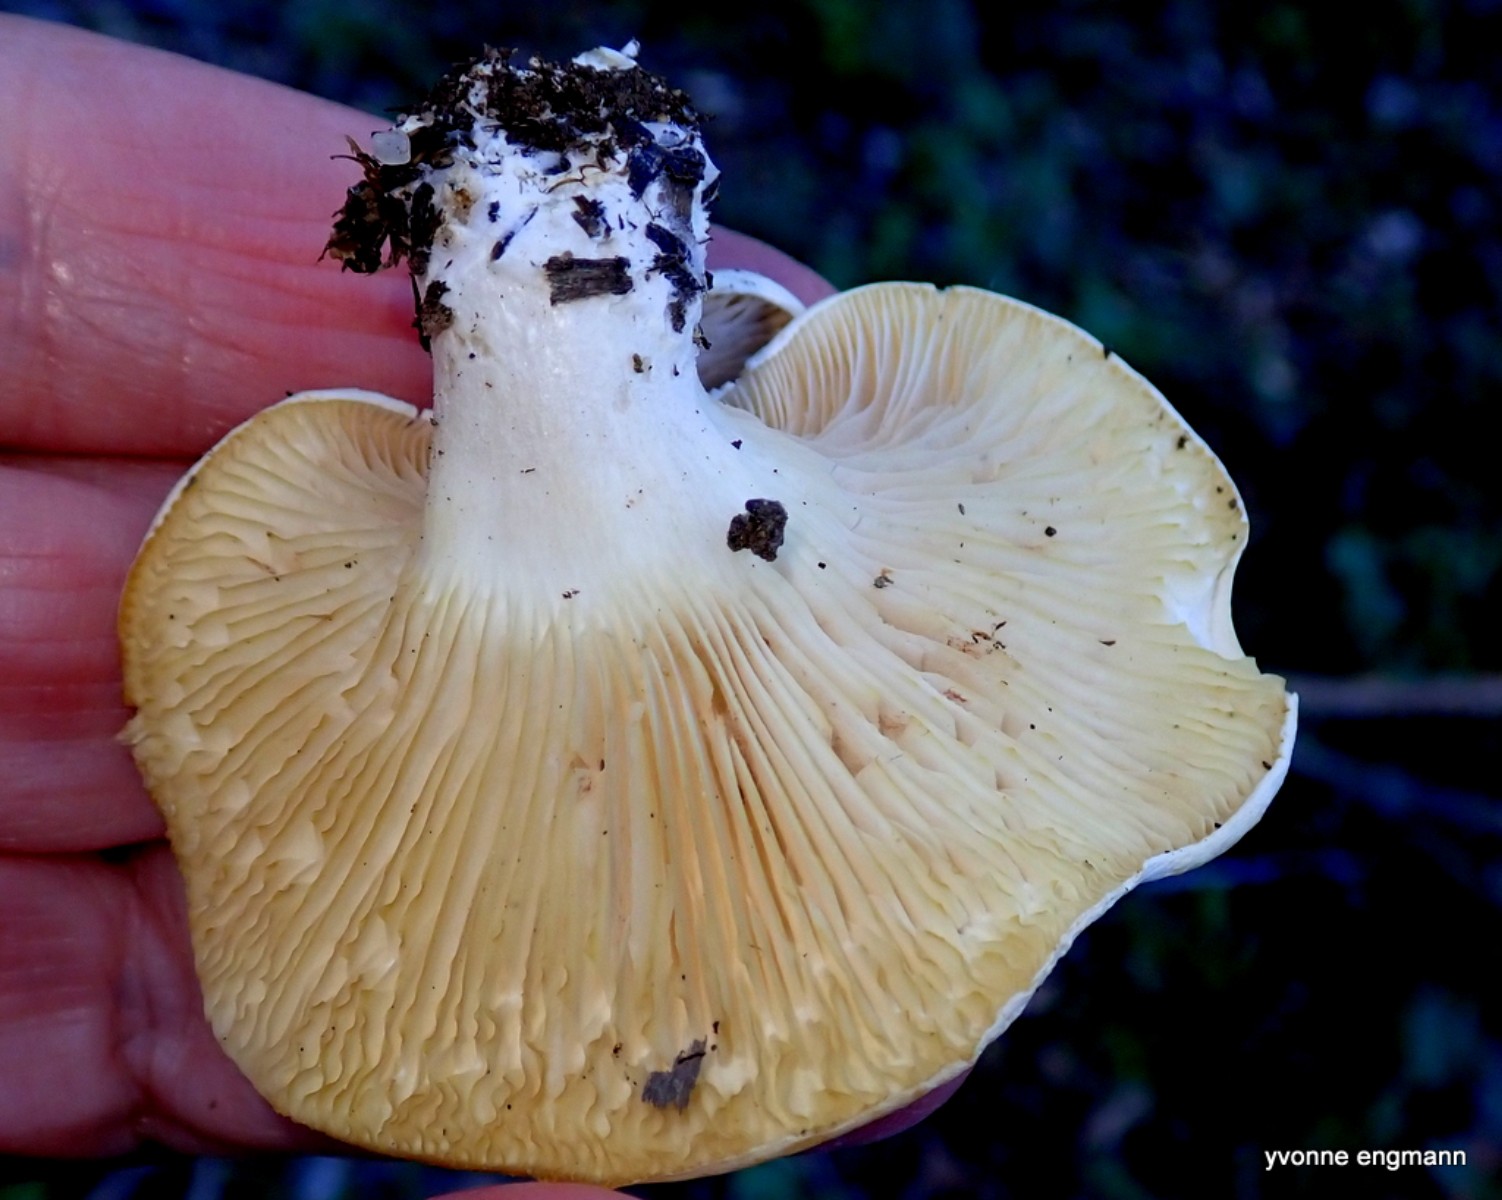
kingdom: Fungi
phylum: Basidiomycota
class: Agaricomycetes
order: Agaricales
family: Entolomataceae
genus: Clitopilus
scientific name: Clitopilus prunulus
